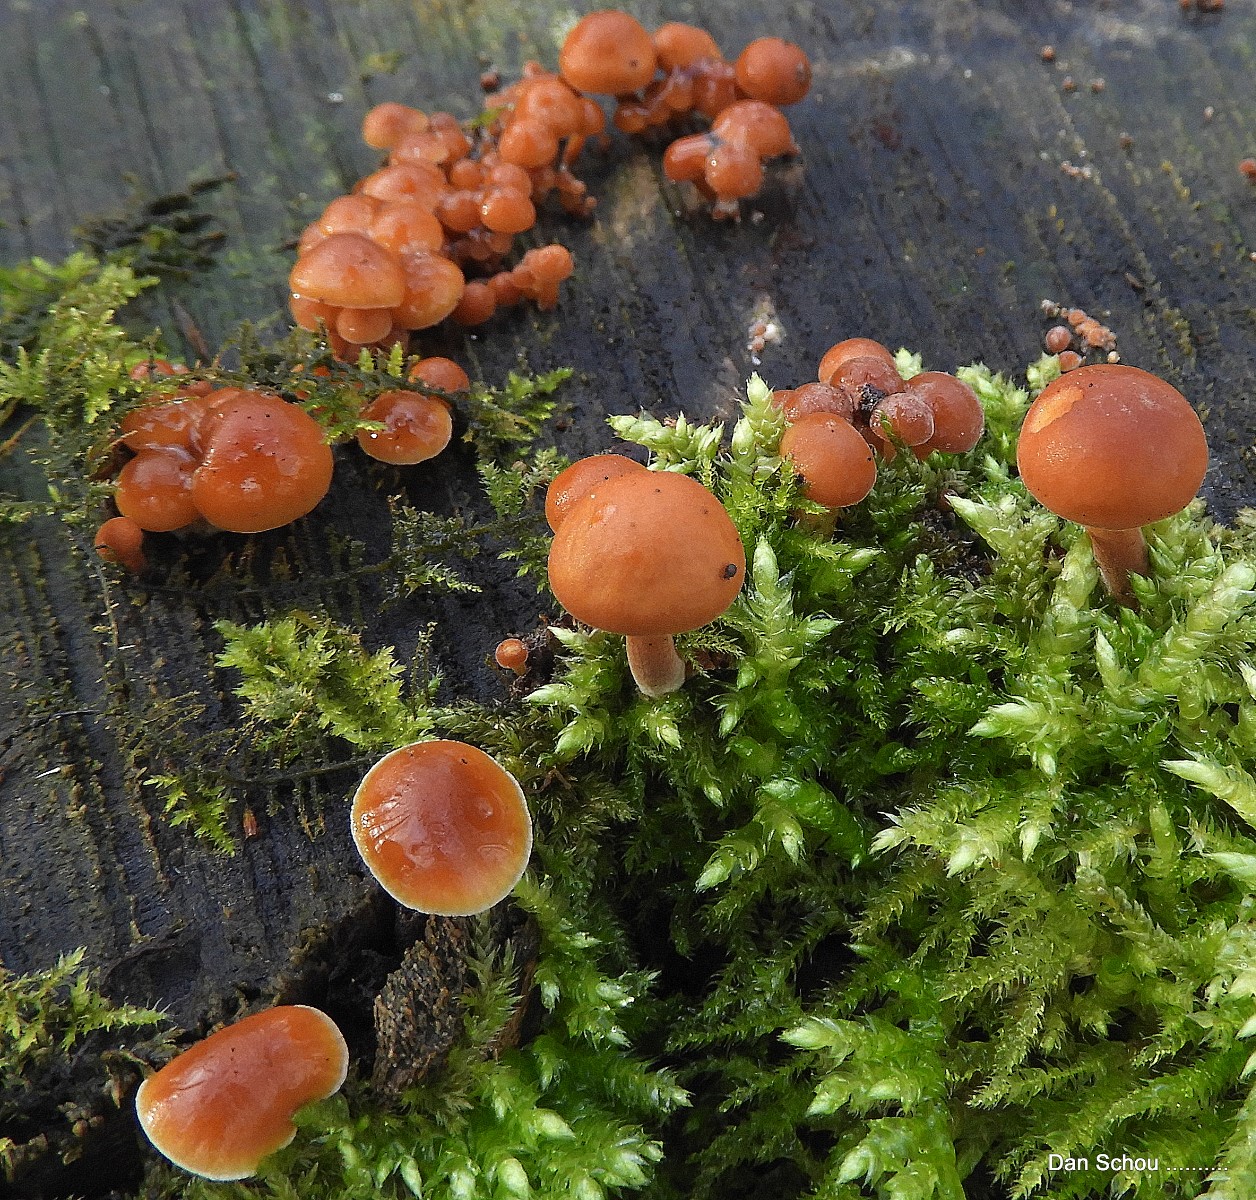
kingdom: Fungi
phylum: Basidiomycota
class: Agaricomycetes
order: Agaricales
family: Physalacriaceae
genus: Flammulina
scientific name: Flammulina velutipes
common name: gul fløjlsfod
